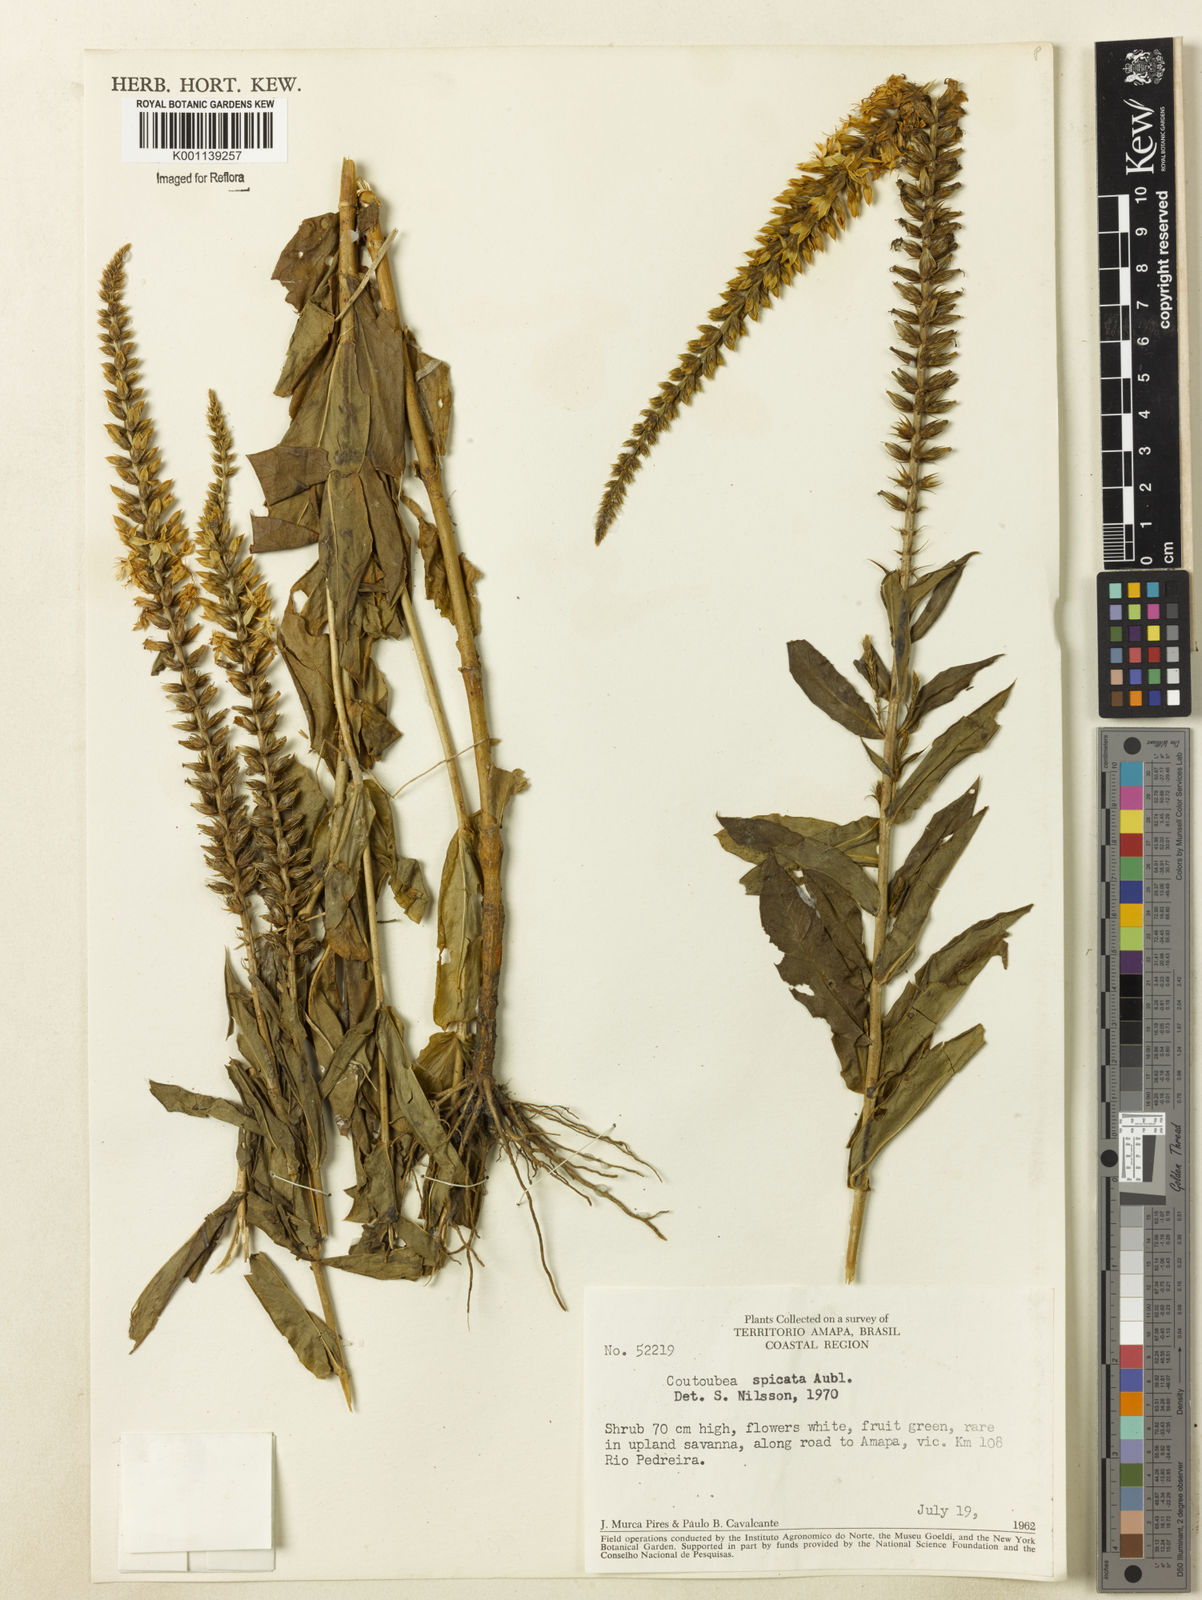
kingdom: Plantae
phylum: Tracheophyta
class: Magnoliopsida
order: Gentianales
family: Gentianaceae
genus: Coutoubea
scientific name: Coutoubea spicata
